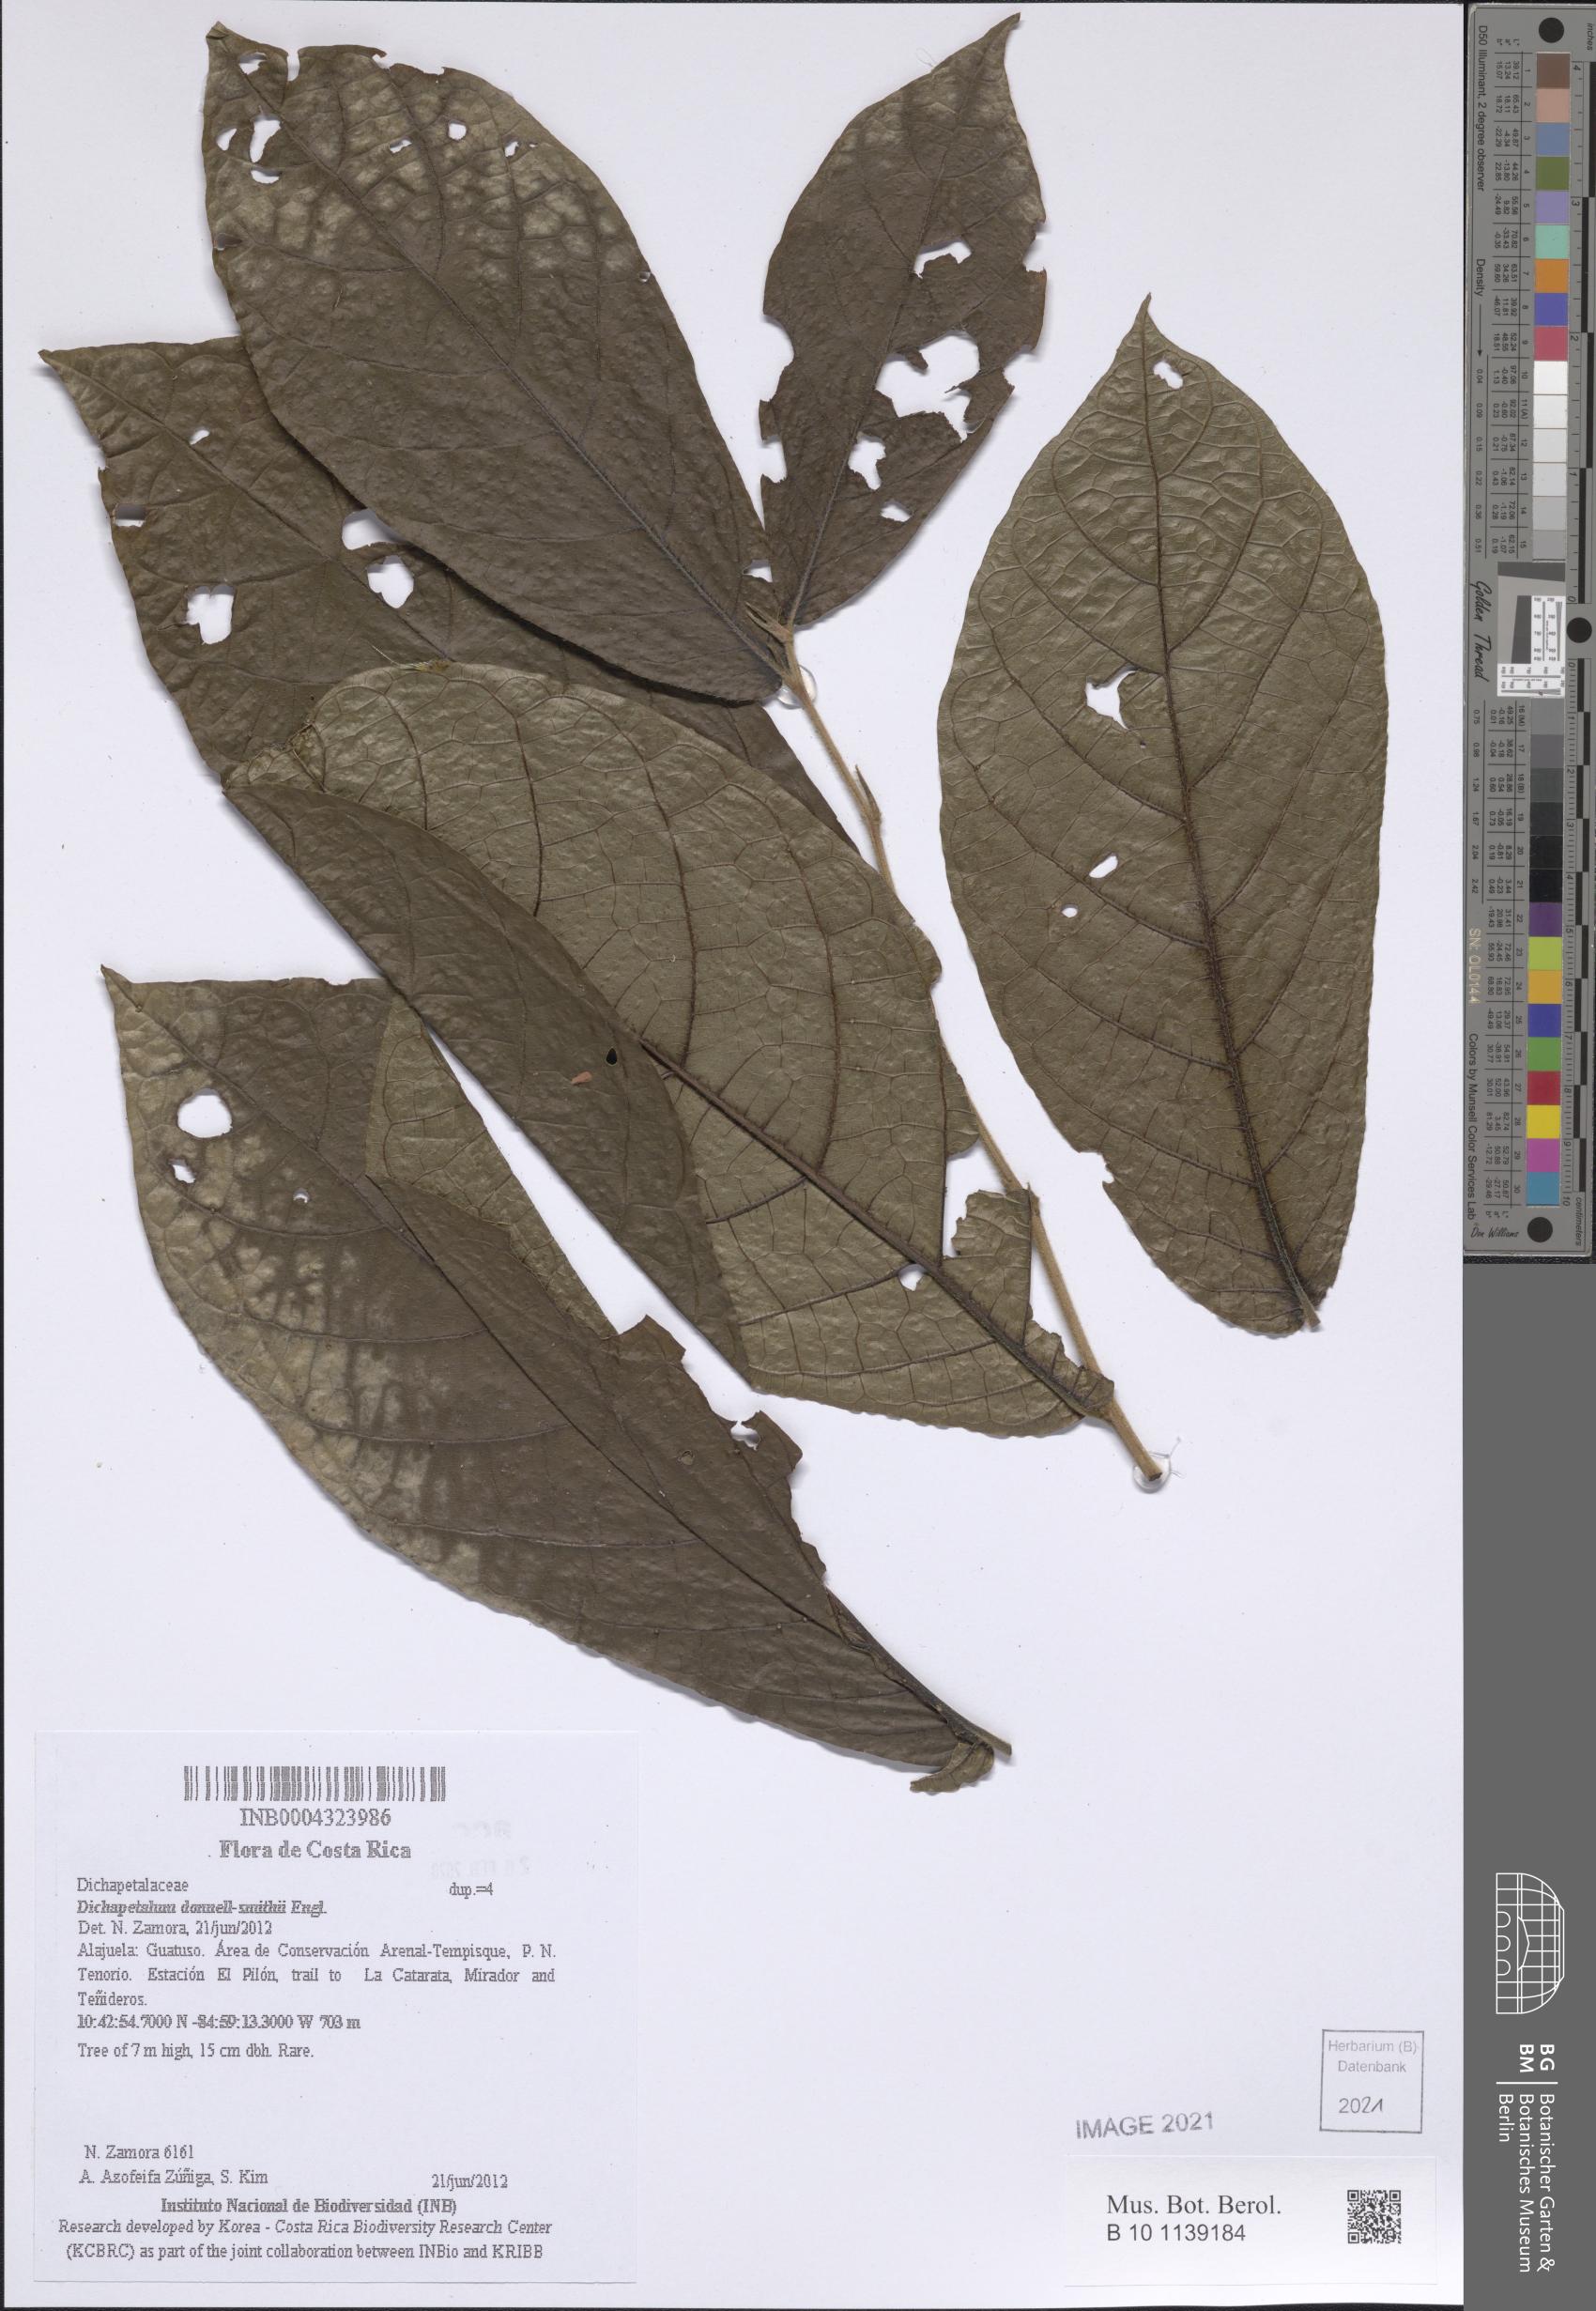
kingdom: Plantae
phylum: Tracheophyta
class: Magnoliopsida
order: Malpighiales
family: Dichapetalaceae
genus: Dichapetalum
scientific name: Dichapetalum donnell-smithii
